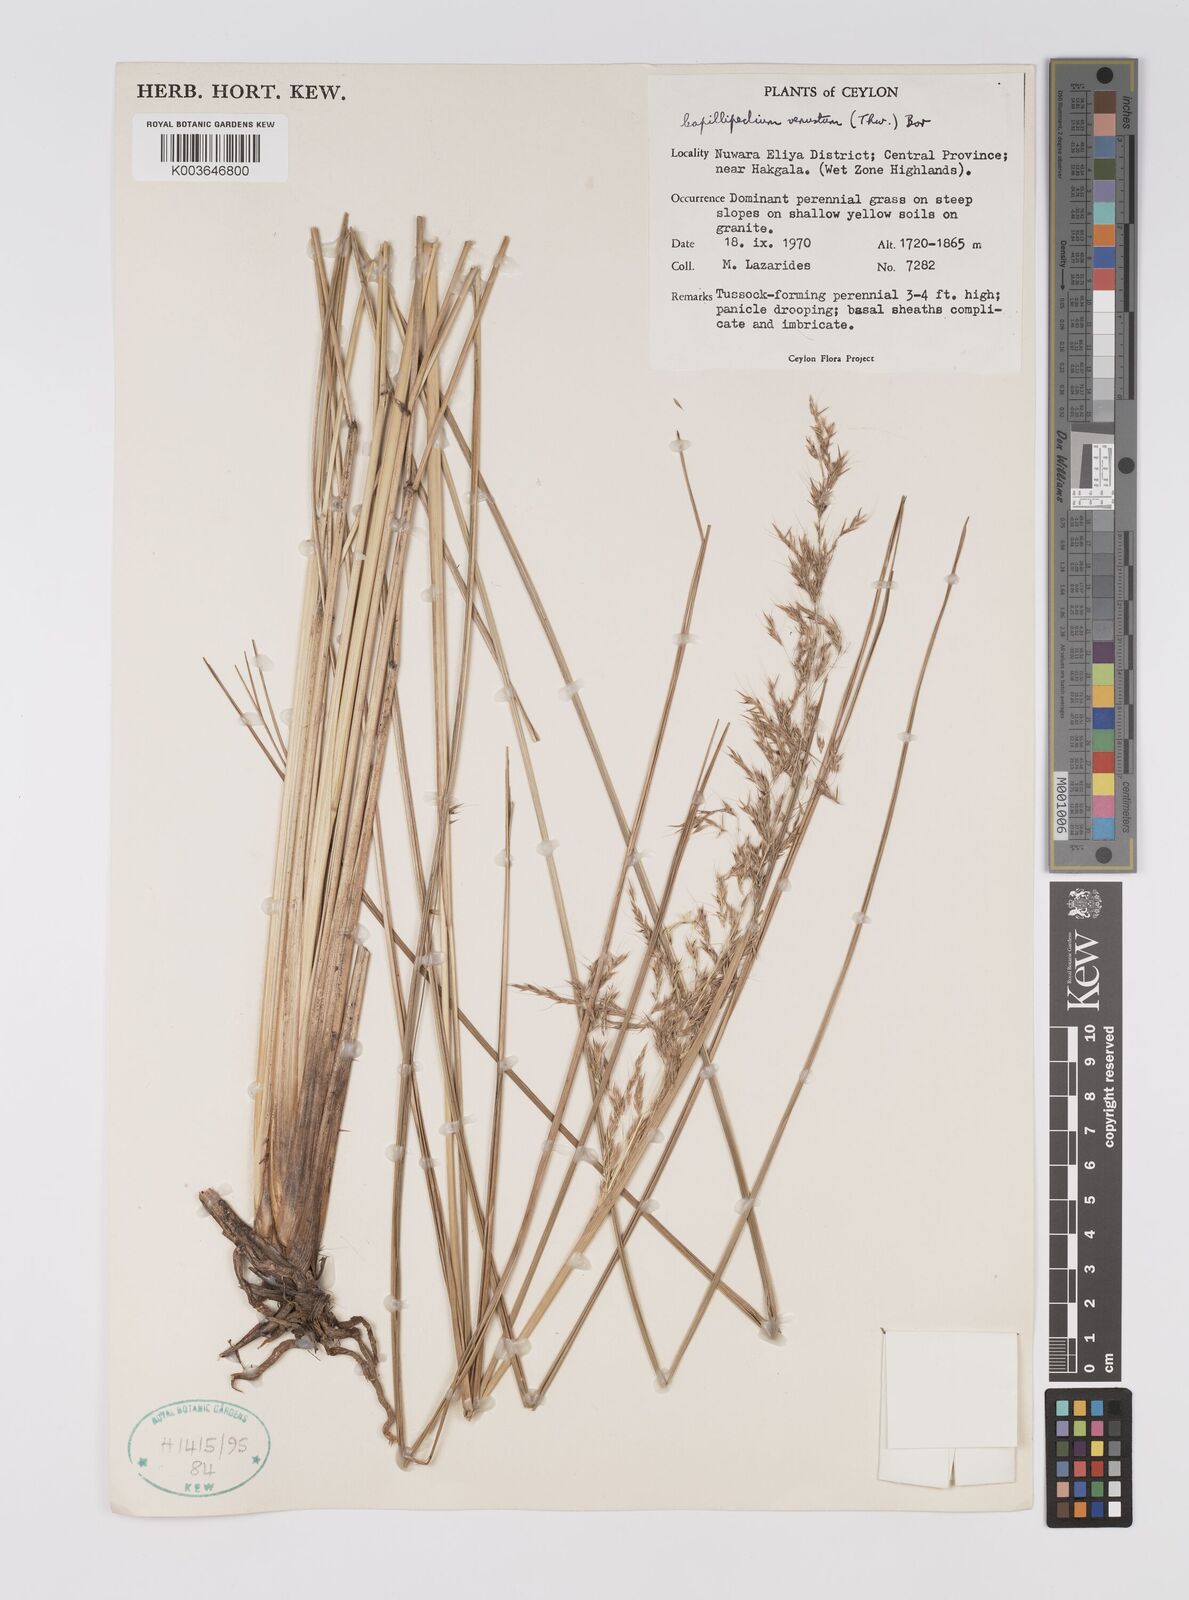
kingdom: Plantae
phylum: Tracheophyta
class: Liliopsida
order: Poales
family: Poaceae
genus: Hemisorghum
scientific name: Hemisorghum venustum
